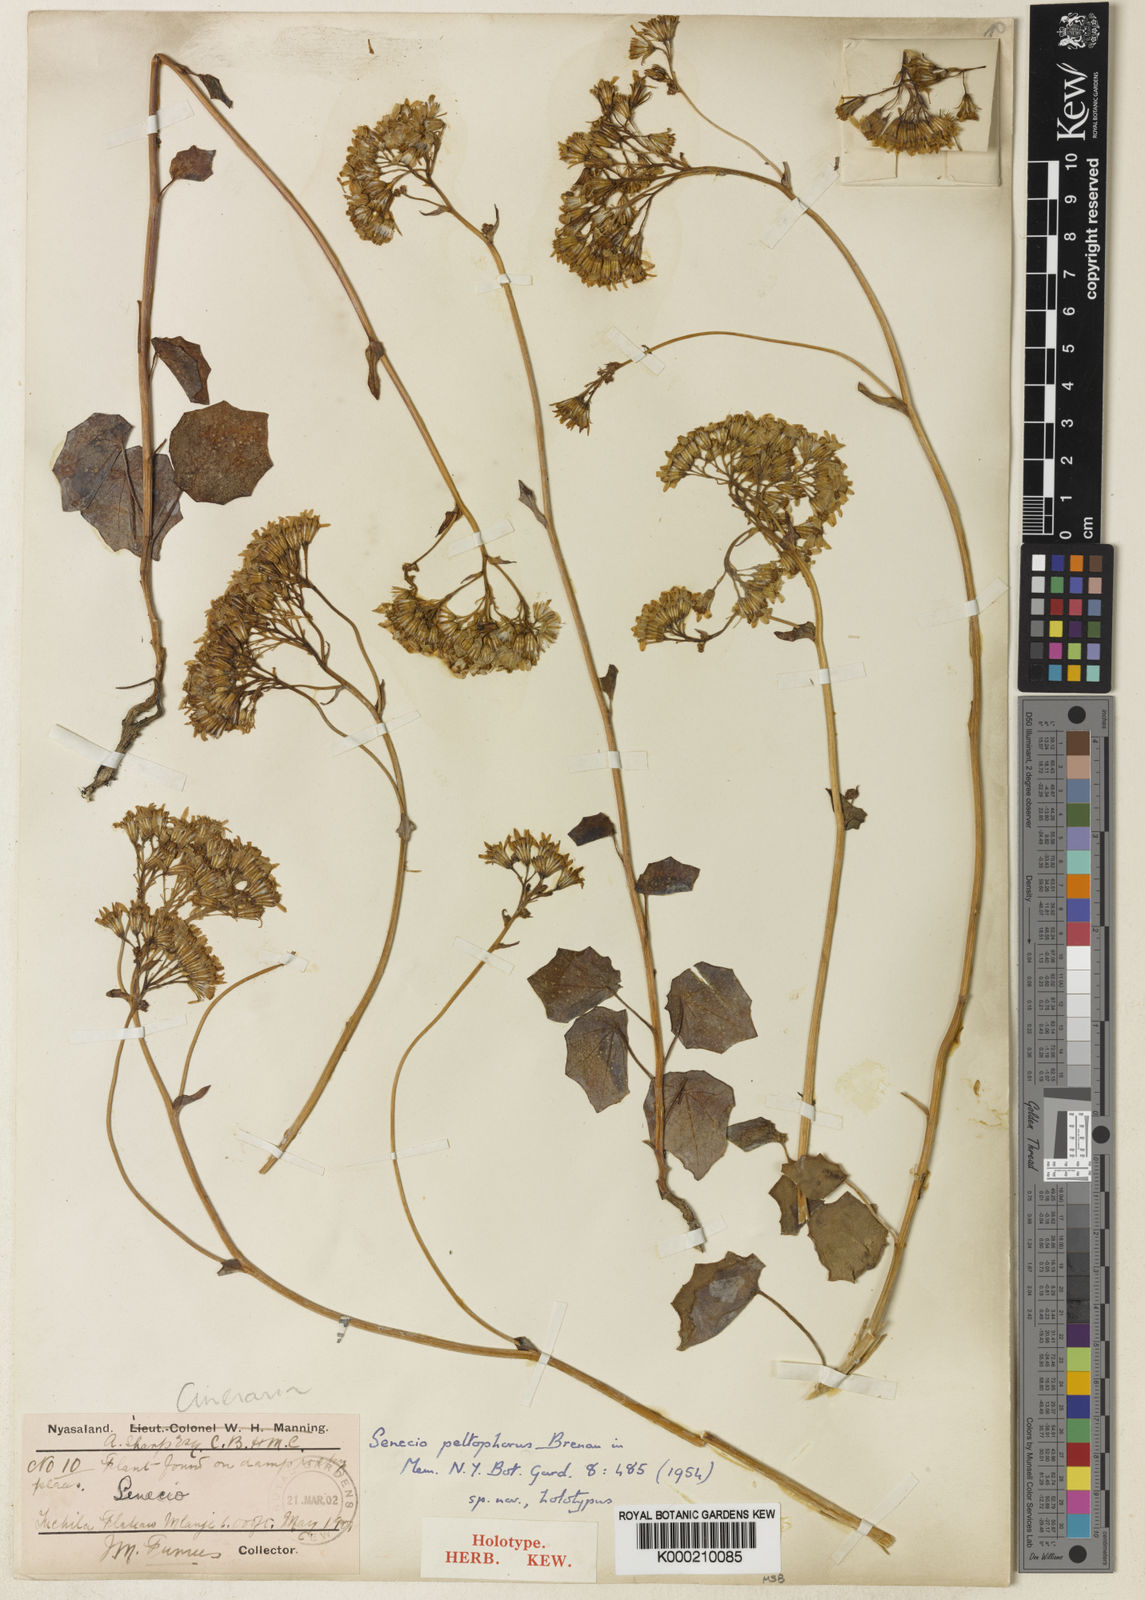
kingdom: Plantae
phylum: Tracheophyta
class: Magnoliopsida
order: Asterales
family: Asteraceae
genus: Senecio
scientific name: Senecio
